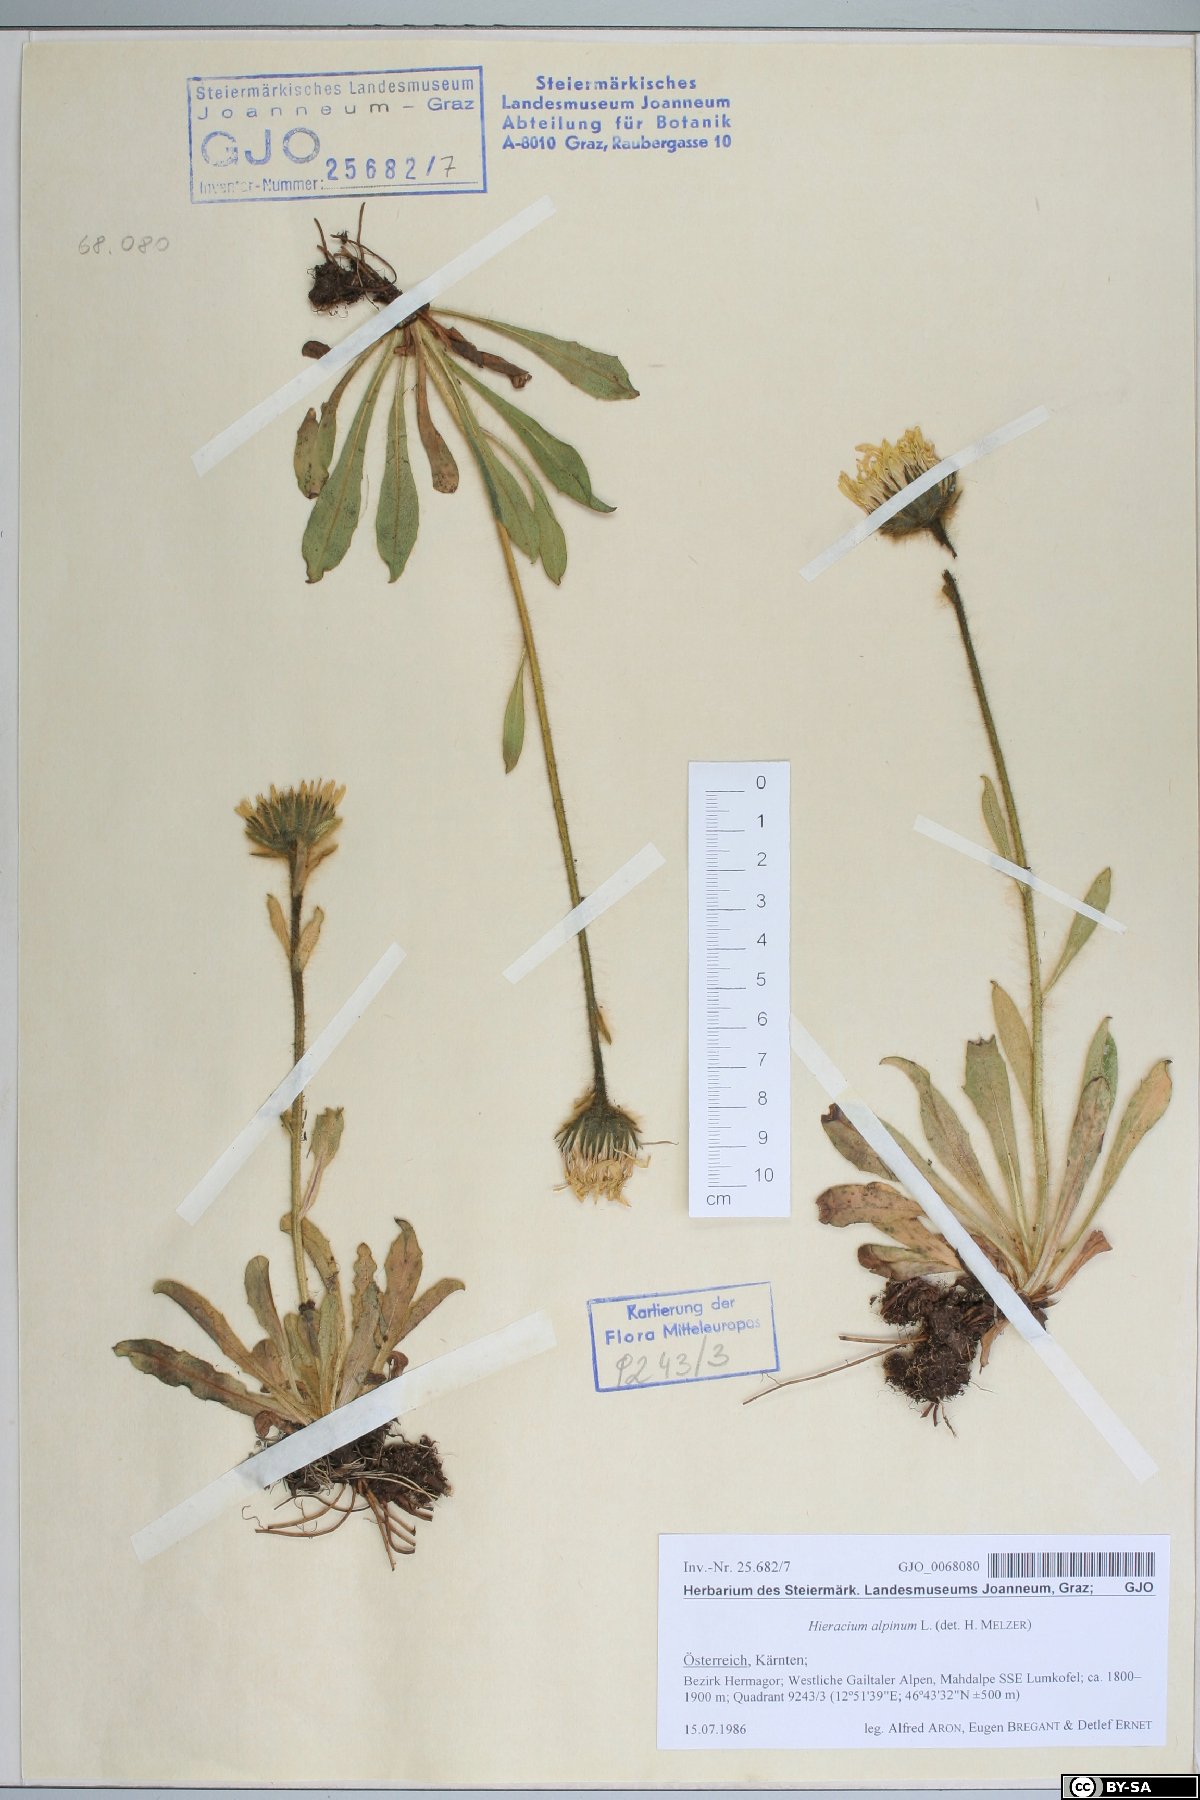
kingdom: Plantae
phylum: Tracheophyta
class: Magnoliopsida
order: Asterales
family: Asteraceae
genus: Hieracium
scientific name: Hieracium alpinum
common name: Alpine hawkweed
